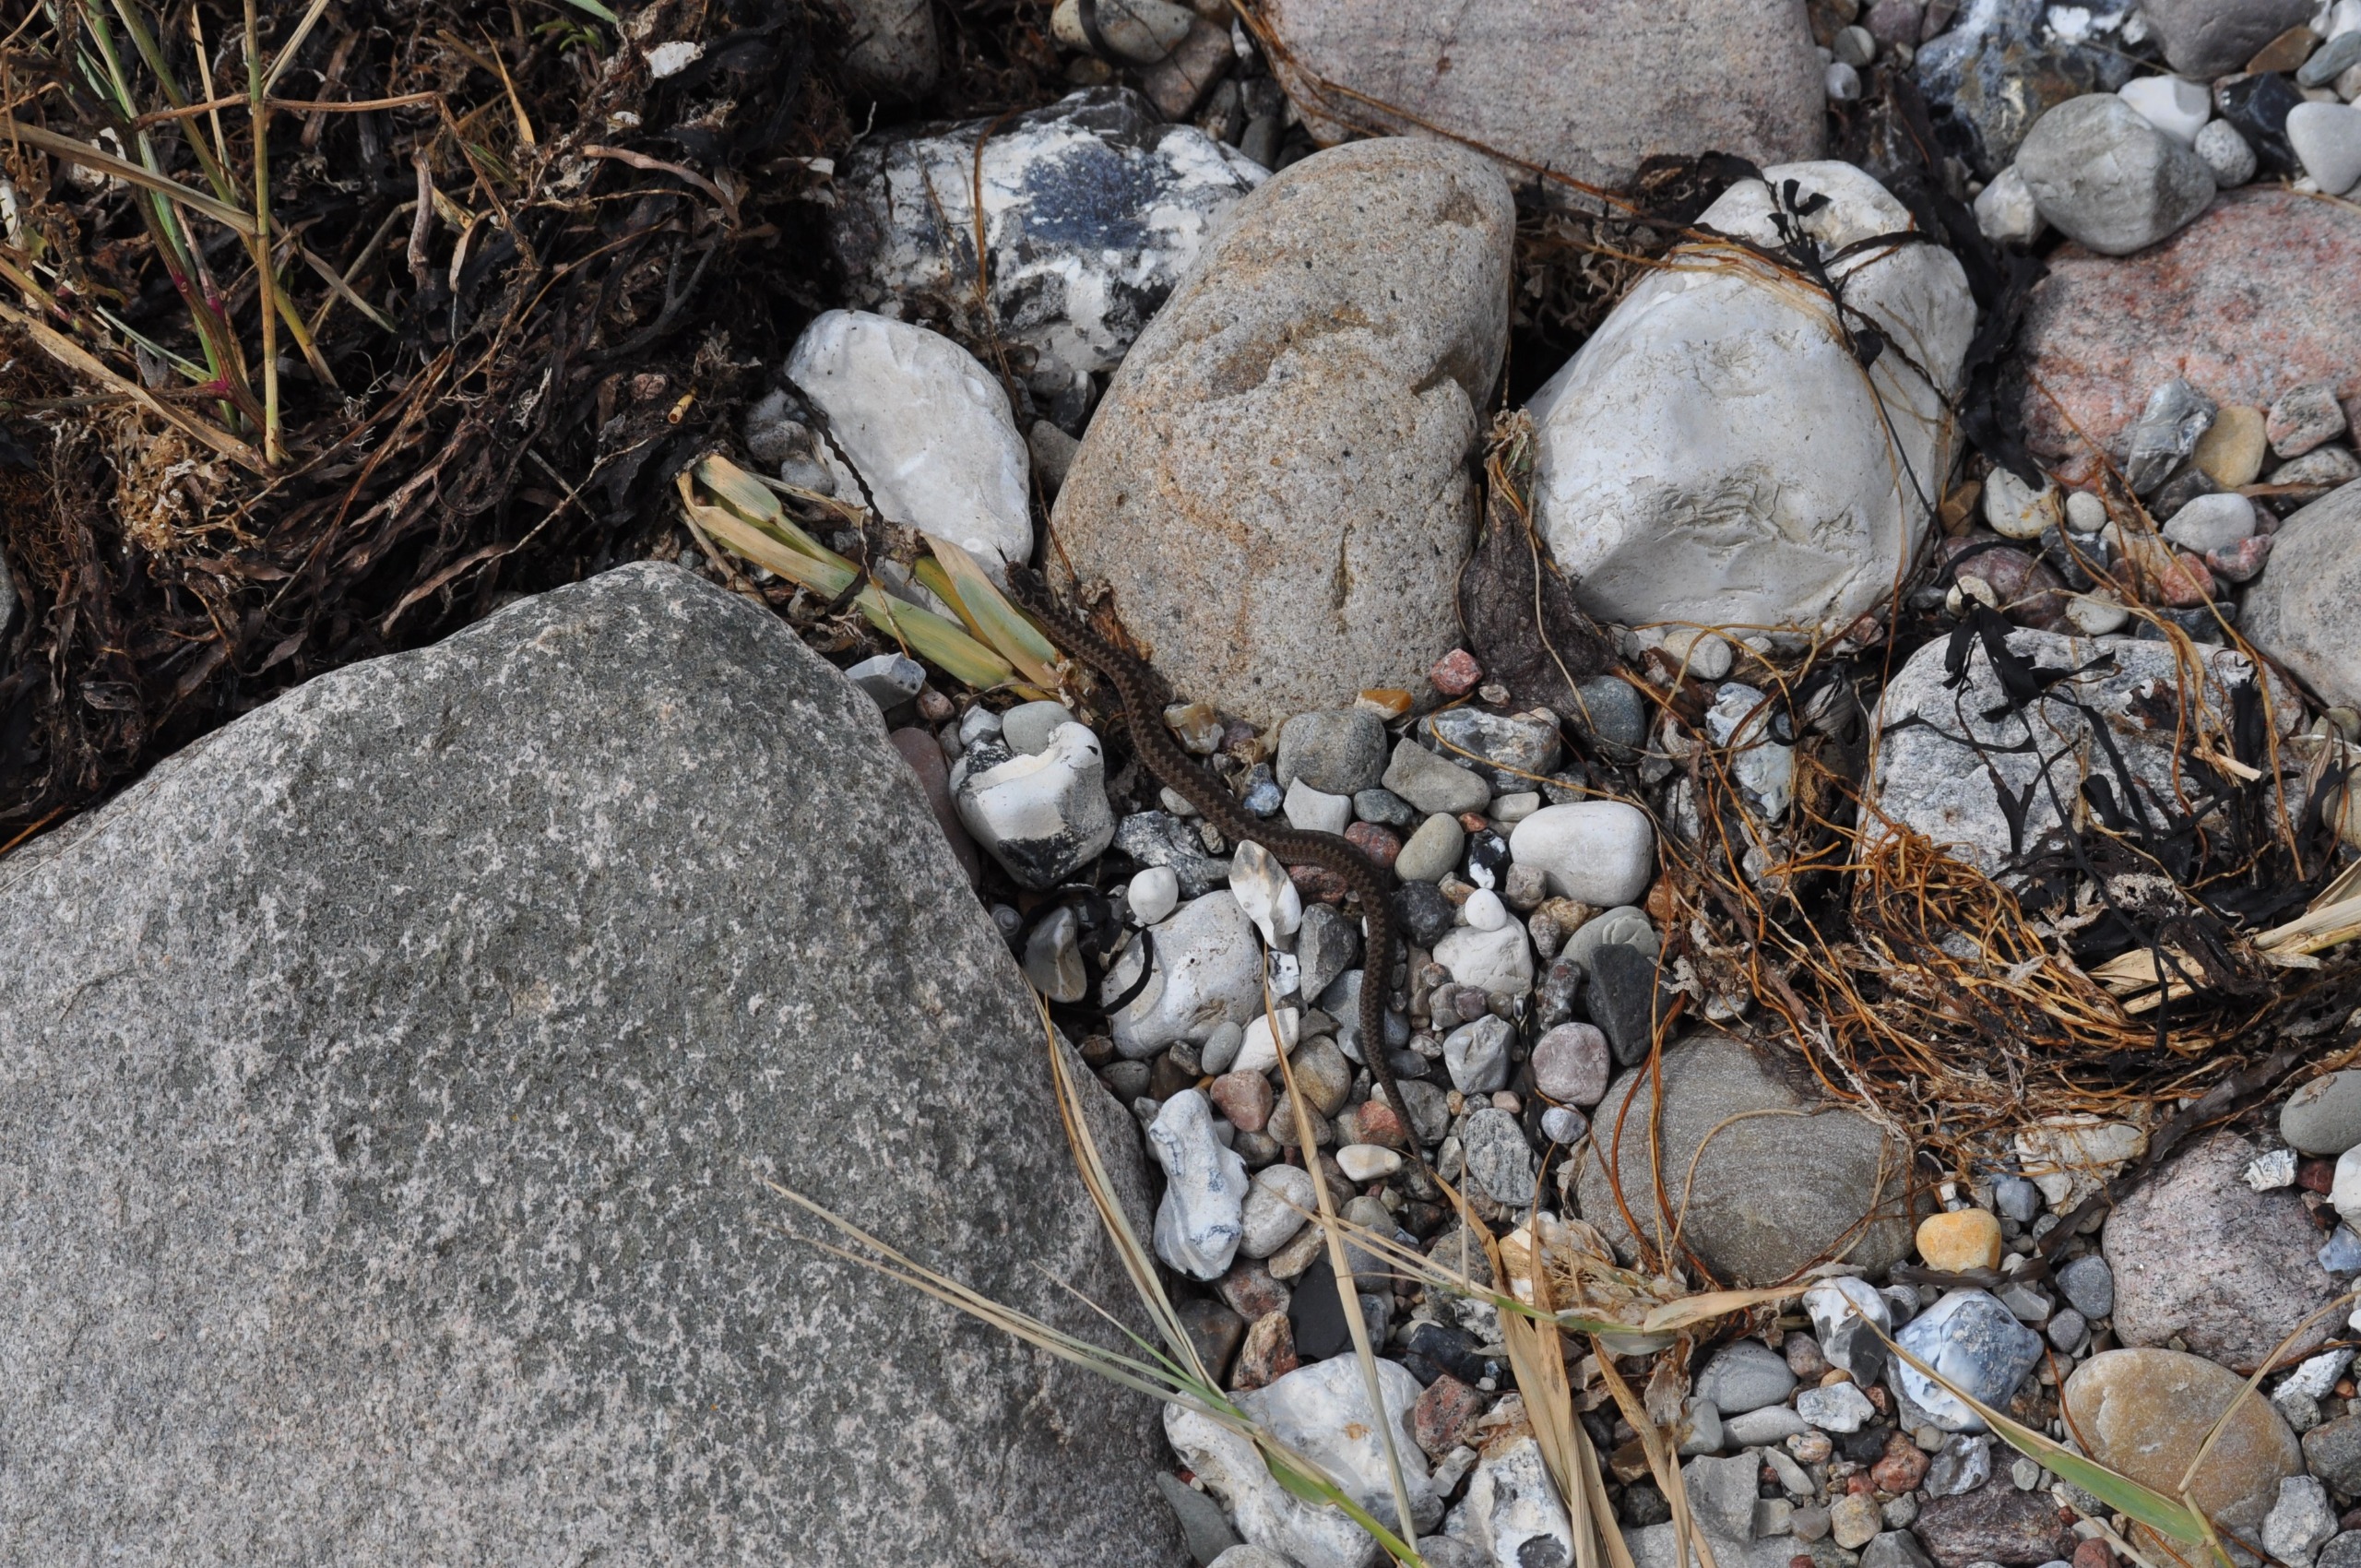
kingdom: Animalia
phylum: Chordata
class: Squamata
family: Viperidae
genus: Vipera
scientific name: Vipera berus
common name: Hugorm
